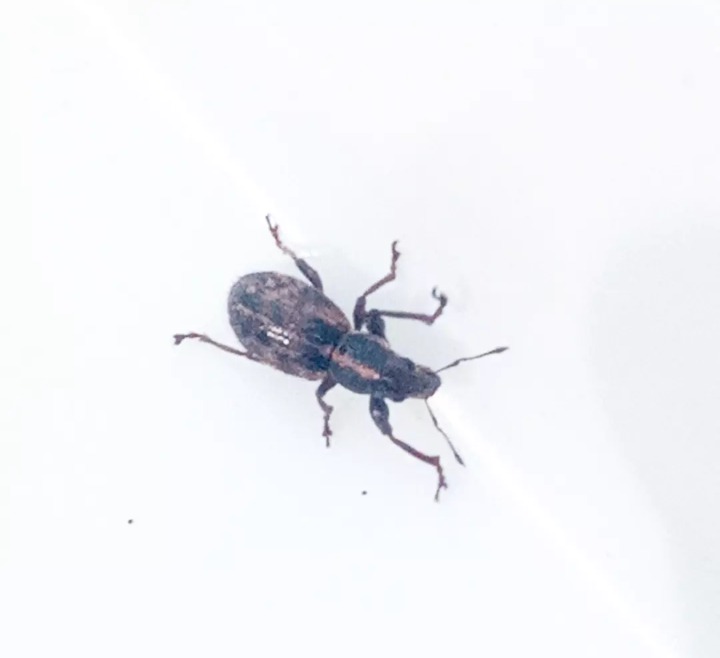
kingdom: Animalia
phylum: Arthropoda
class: Insecta
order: Coleoptera
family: Curculionidae
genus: Andrion
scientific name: Andrion regensteinense
